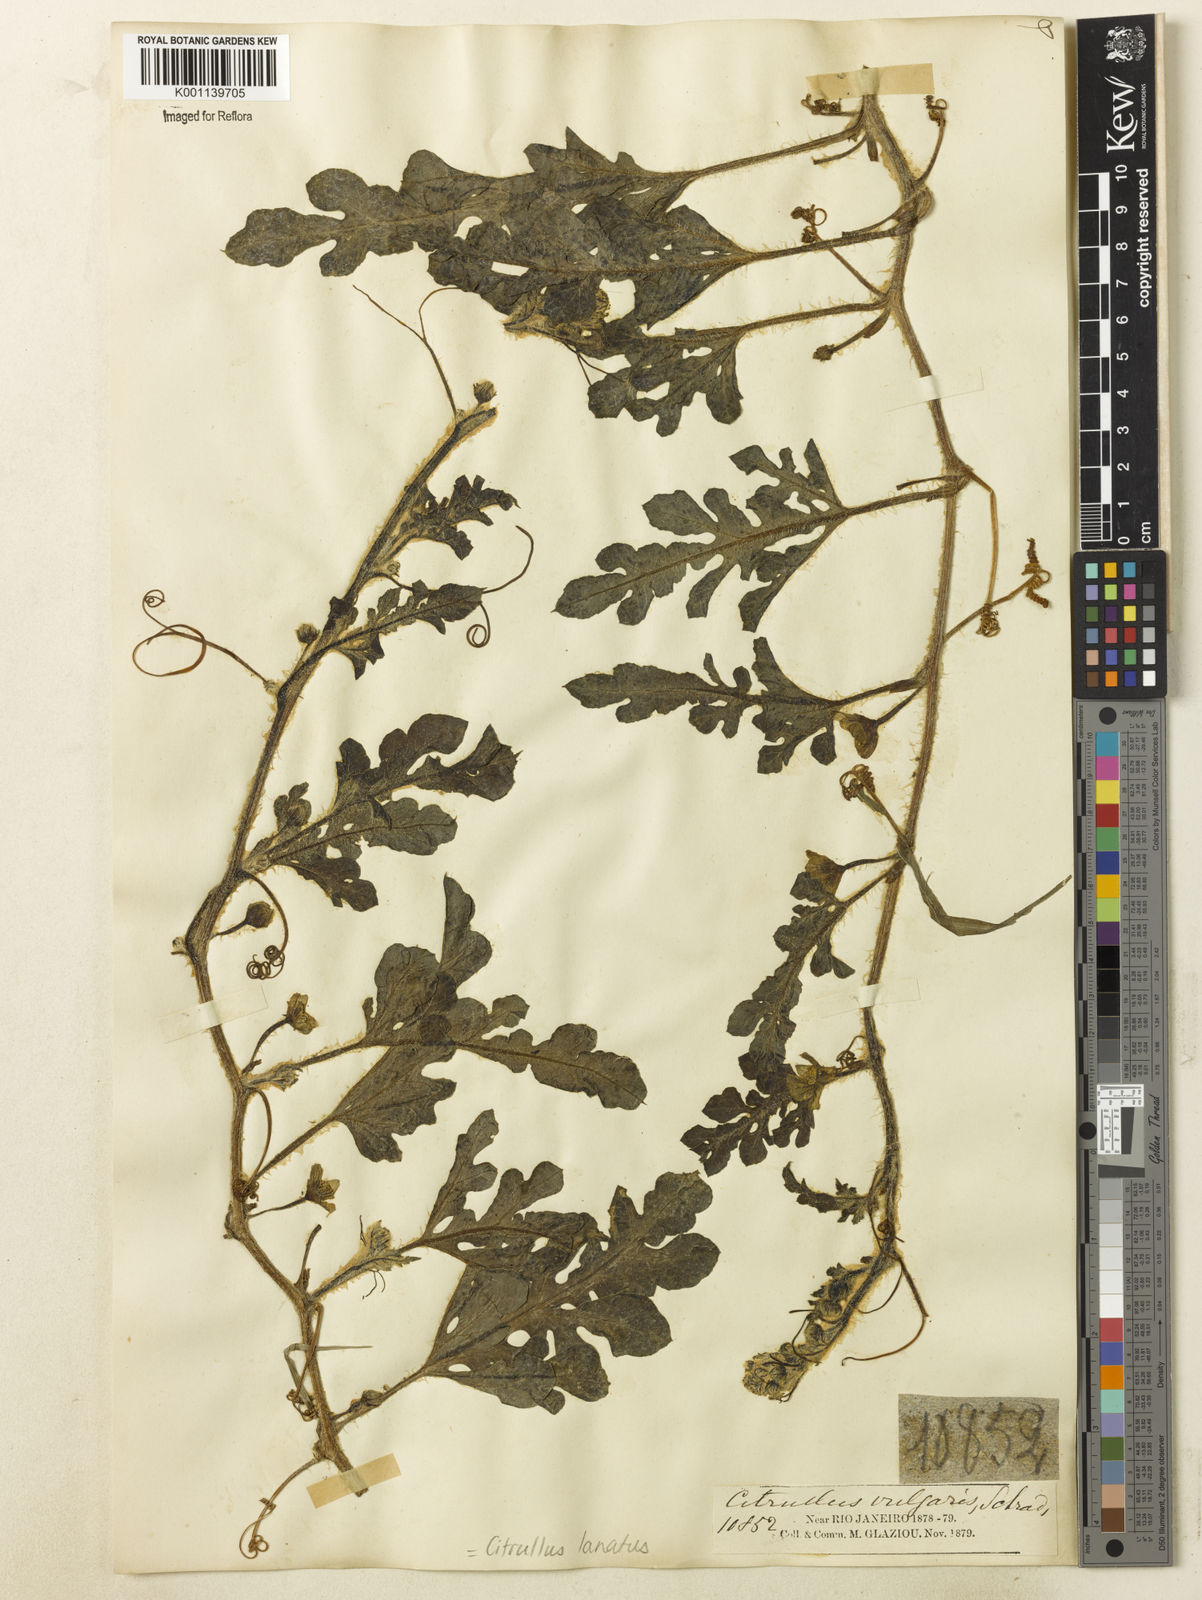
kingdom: Plantae
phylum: Tracheophyta
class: Magnoliopsida
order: Cucurbitales
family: Cucurbitaceae
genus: Citrullus
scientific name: Citrullus lanatus
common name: Watermelon
